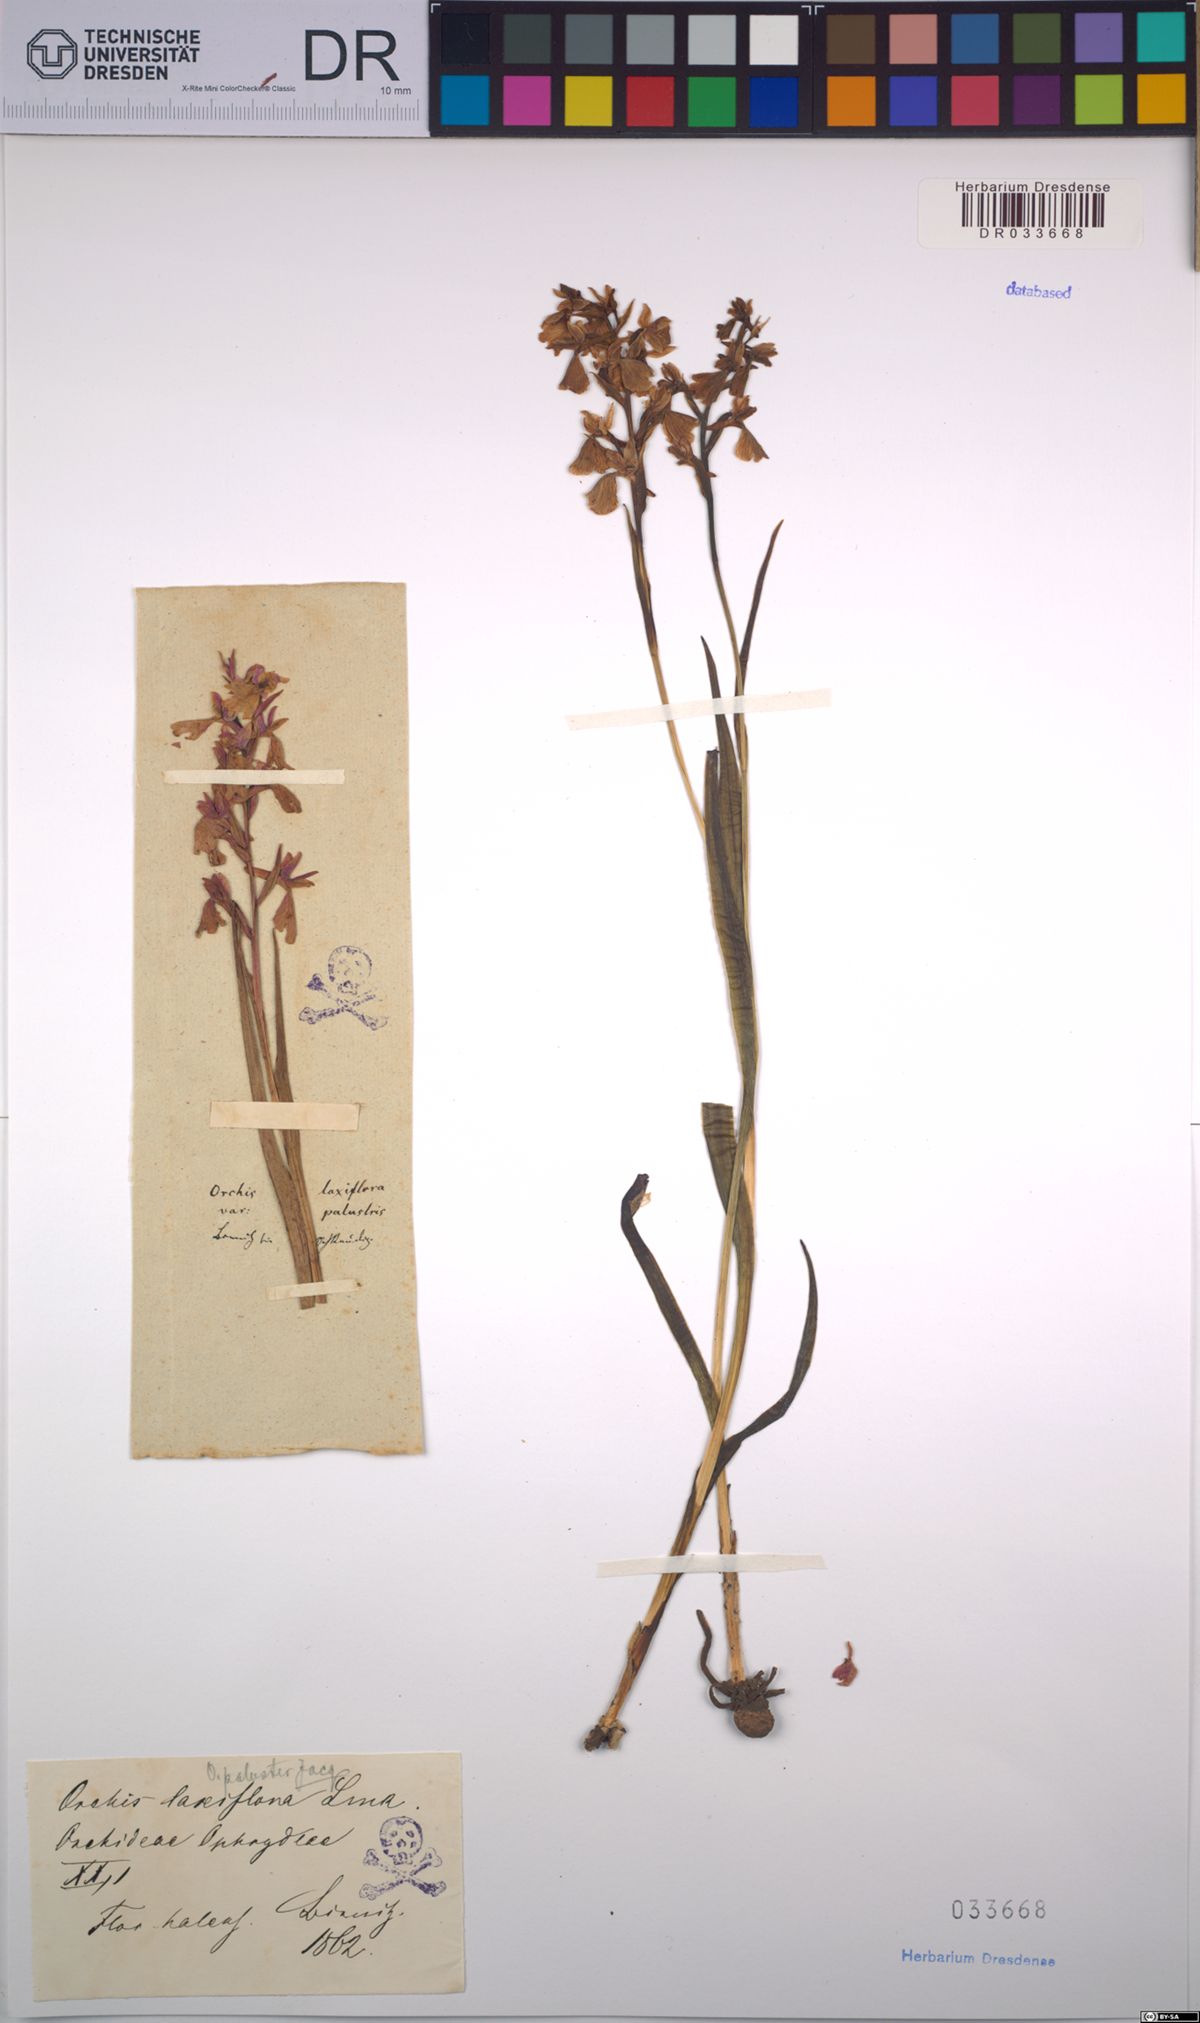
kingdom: Plantae
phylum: Tracheophyta
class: Liliopsida
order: Asparagales
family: Orchidaceae
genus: Anacamptis
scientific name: Anacamptis palustris
